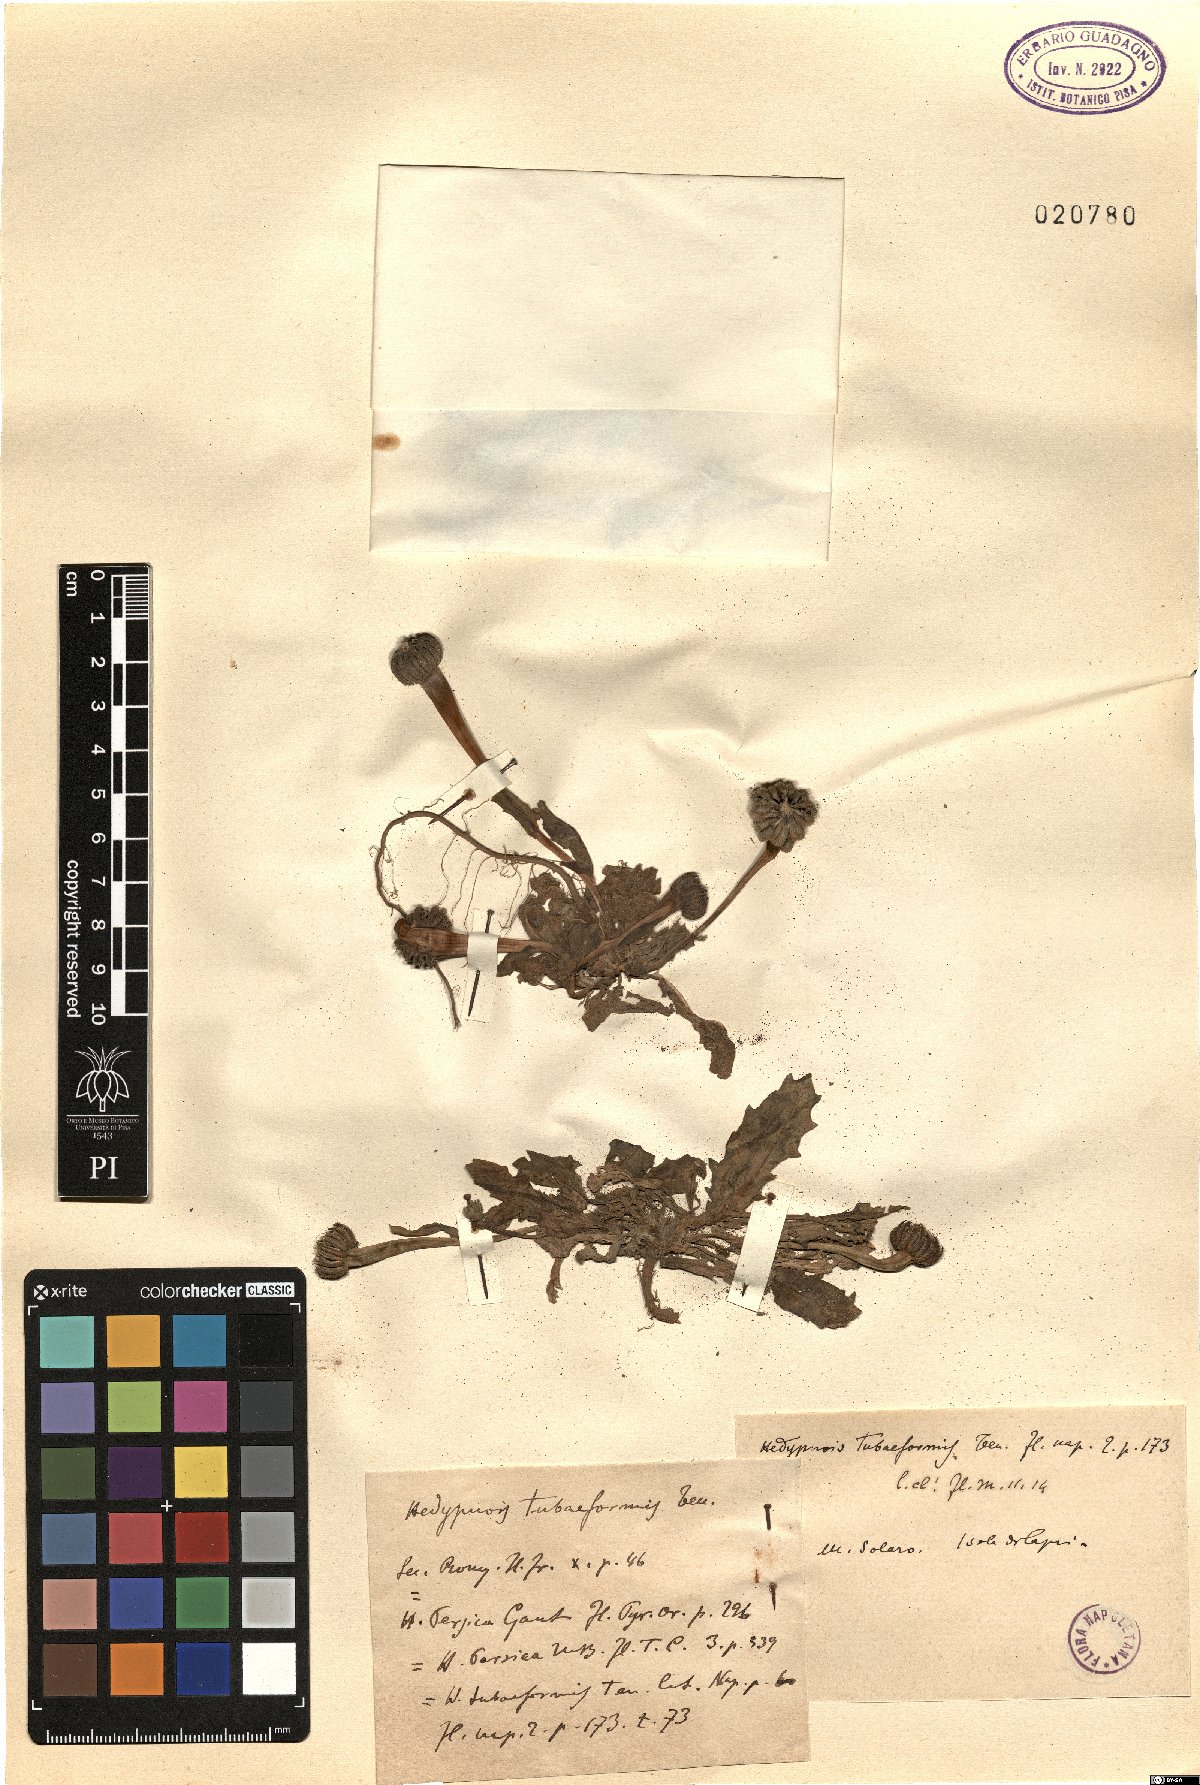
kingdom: Plantae
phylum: Tracheophyta
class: Magnoliopsida
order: Asterales
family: Asteraceae
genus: Hedypnois
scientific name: Hedypnois rhagadioloides
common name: Cretan weed
